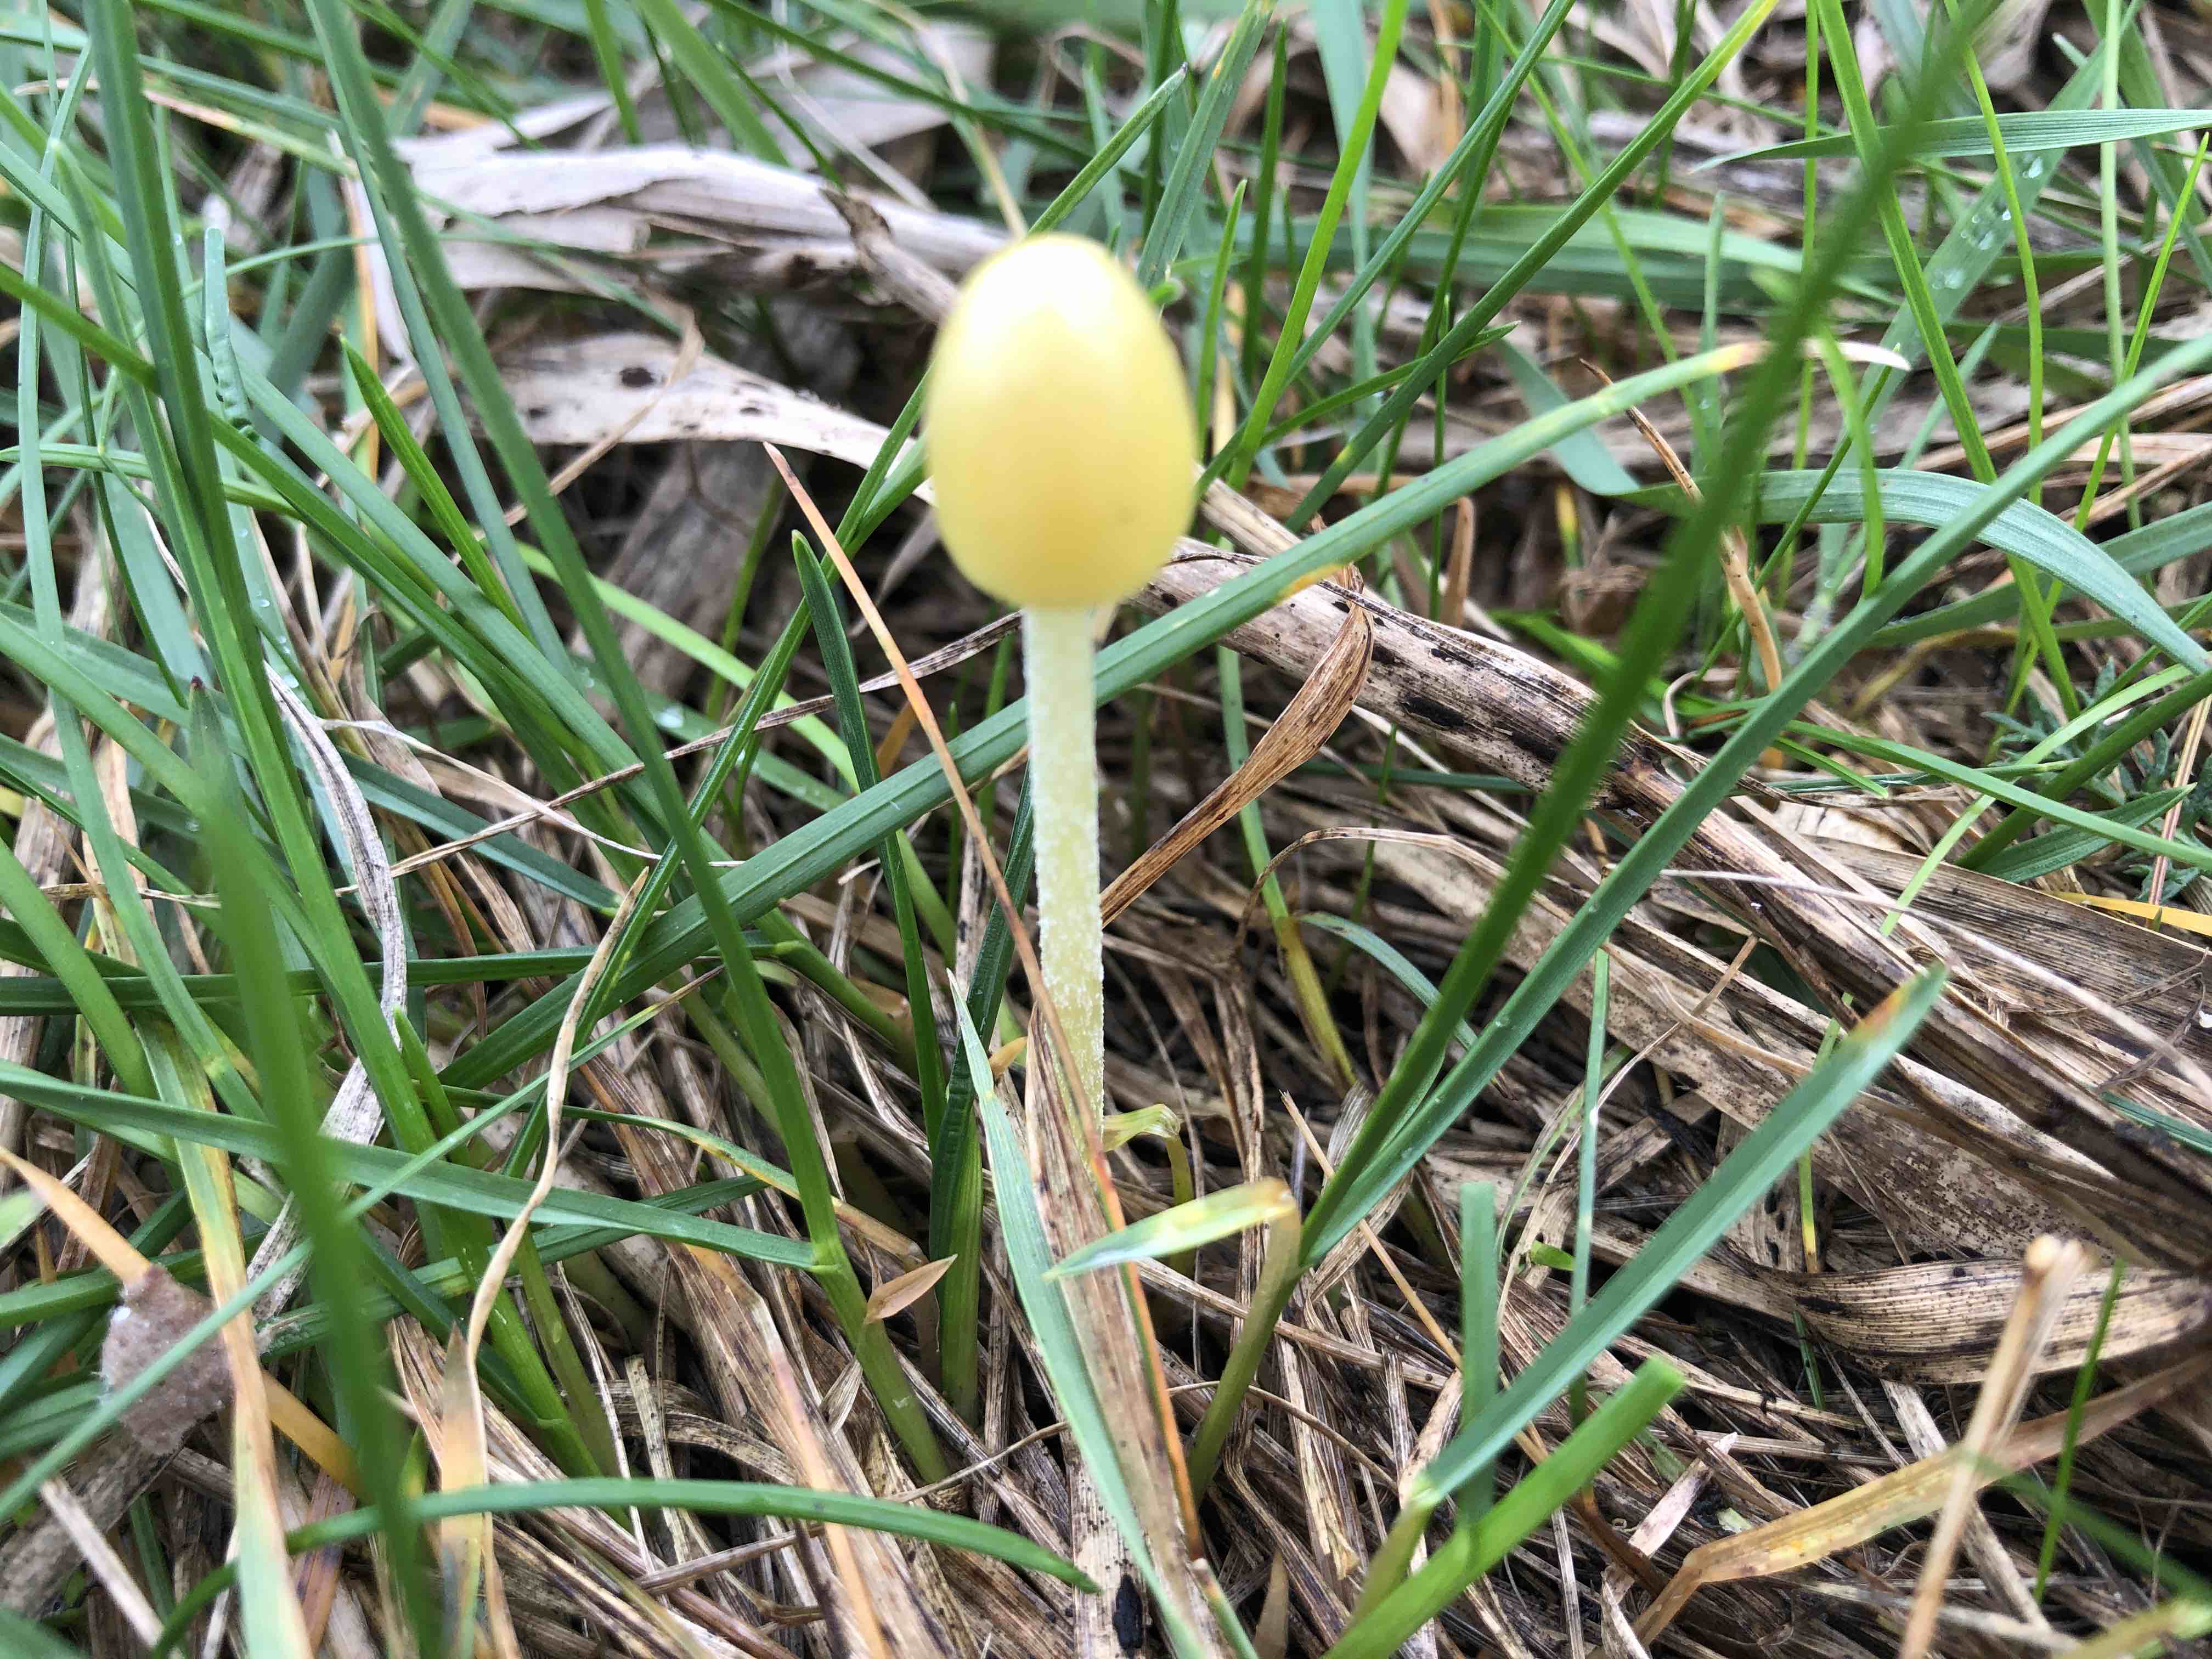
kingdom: Fungi
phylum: Basidiomycota
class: Agaricomycetes
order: Agaricales
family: Bolbitiaceae
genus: Bolbitius
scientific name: Bolbitius titubans
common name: almindelig gulhat
